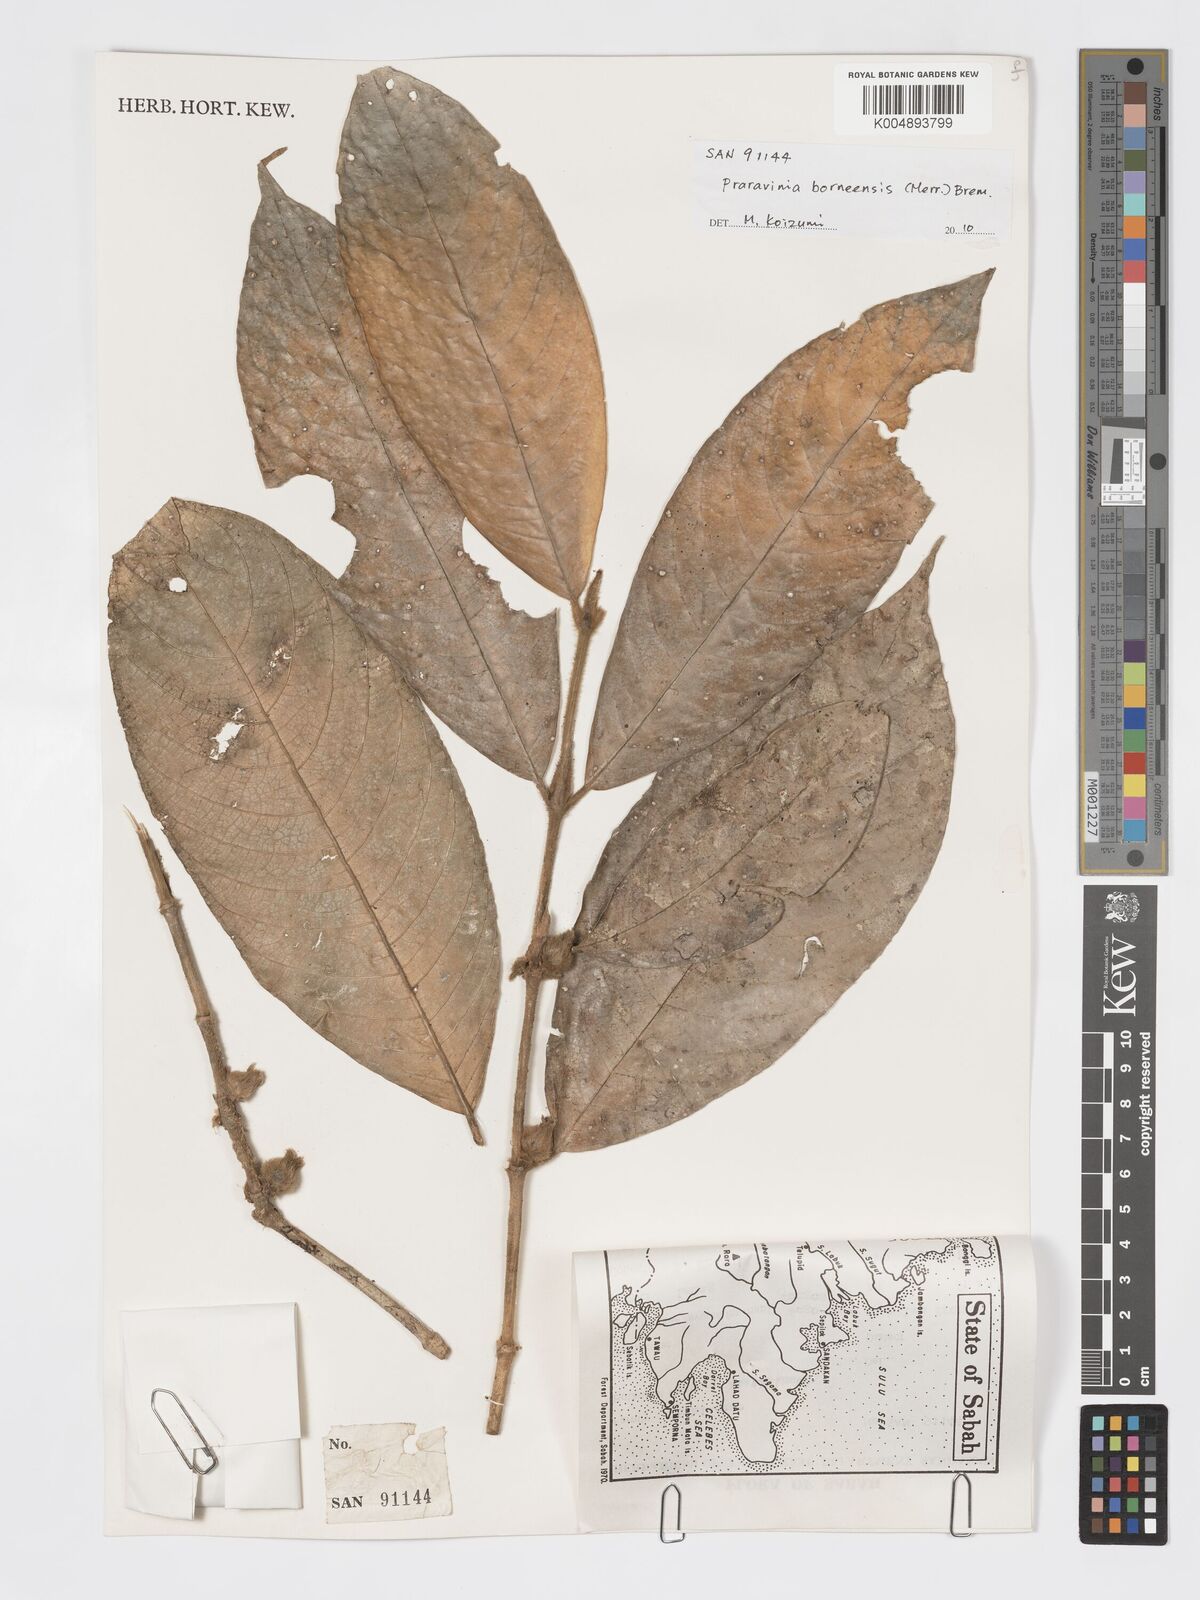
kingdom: Plantae
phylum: Tracheophyta
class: Magnoliopsida
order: Gentianales
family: Rubiaceae
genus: Praravinia
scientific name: Praravinia borneensis
